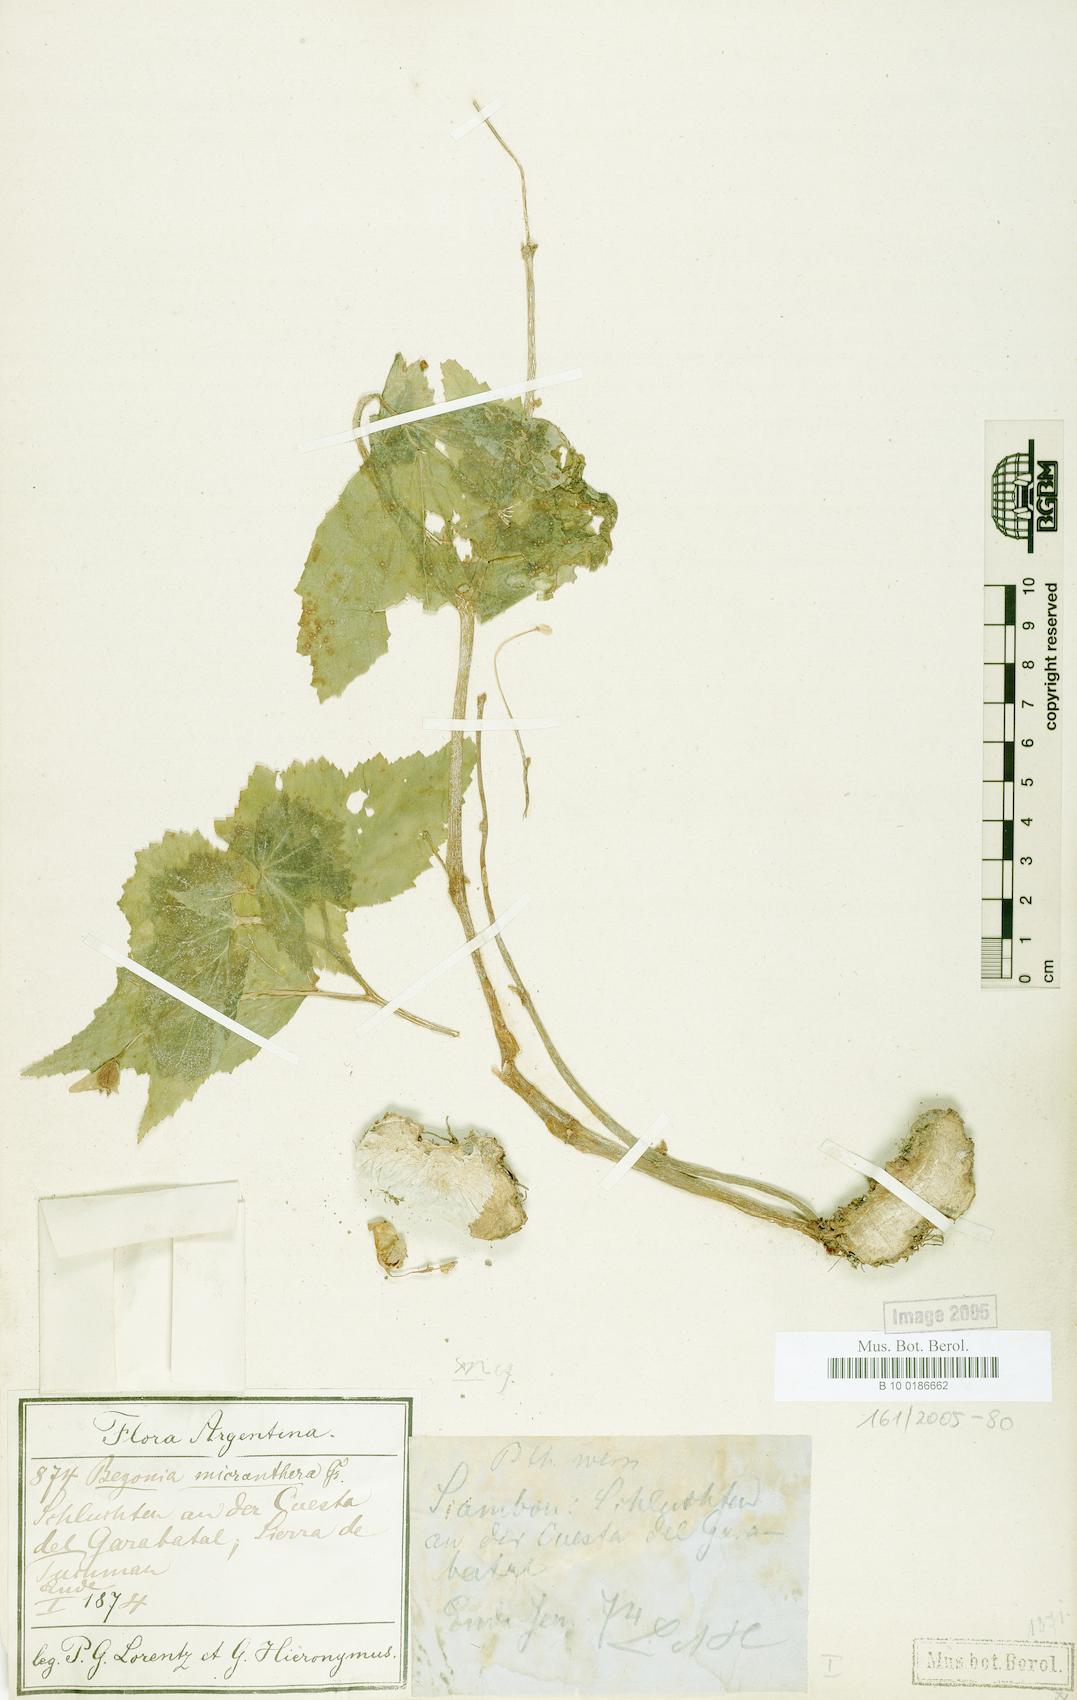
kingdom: Plantae
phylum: Tracheophyta
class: Magnoliopsida
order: Cucurbitales
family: Begoniaceae
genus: Begonia
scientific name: Begonia micranthera
